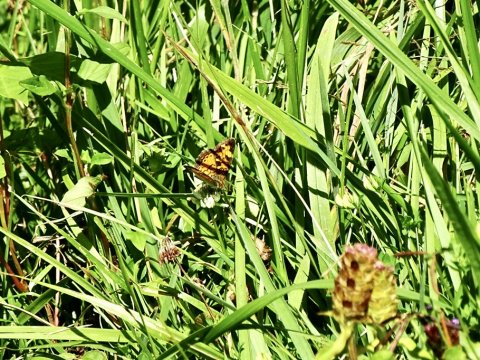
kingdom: Animalia
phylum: Arthropoda
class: Insecta
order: Lepidoptera
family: Nymphalidae
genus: Phyciodes
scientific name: Phyciodes tharos
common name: Pearl Crescent
